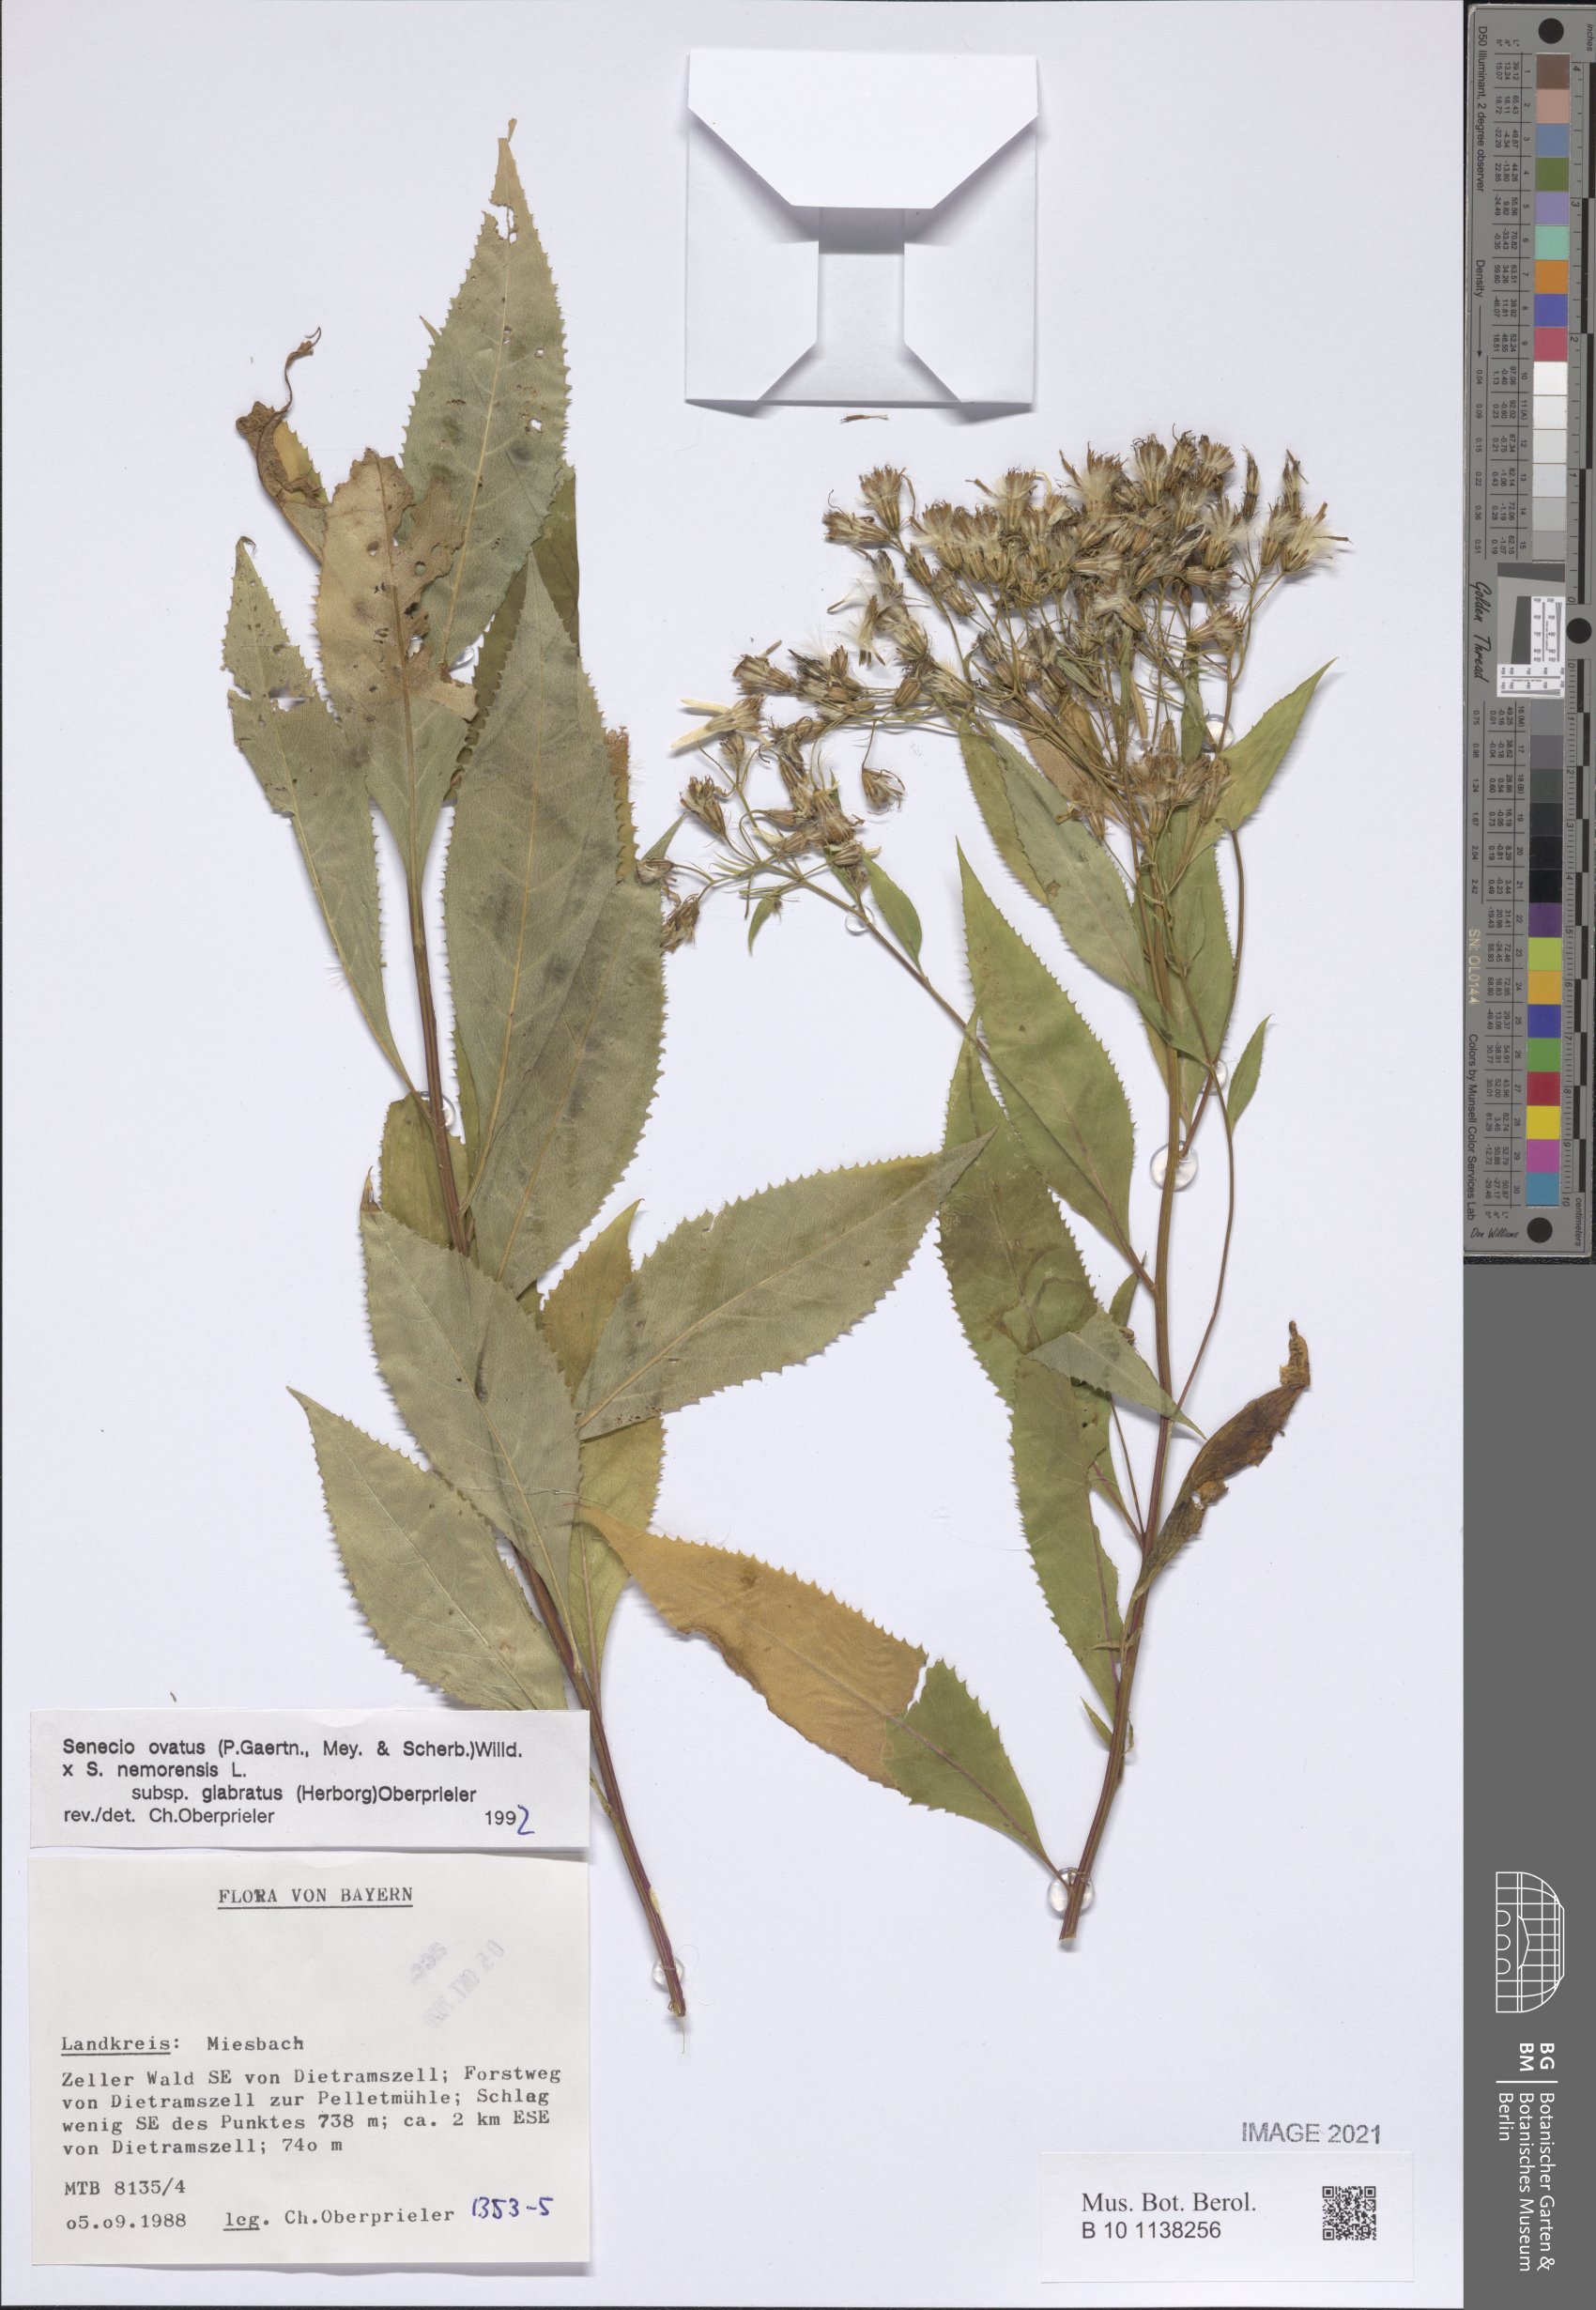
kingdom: Plantae
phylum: Tracheophyta
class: Magnoliopsida
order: Asterales
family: Asteraceae
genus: Senecio
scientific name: Senecio ovatus
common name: Wood ragwort
